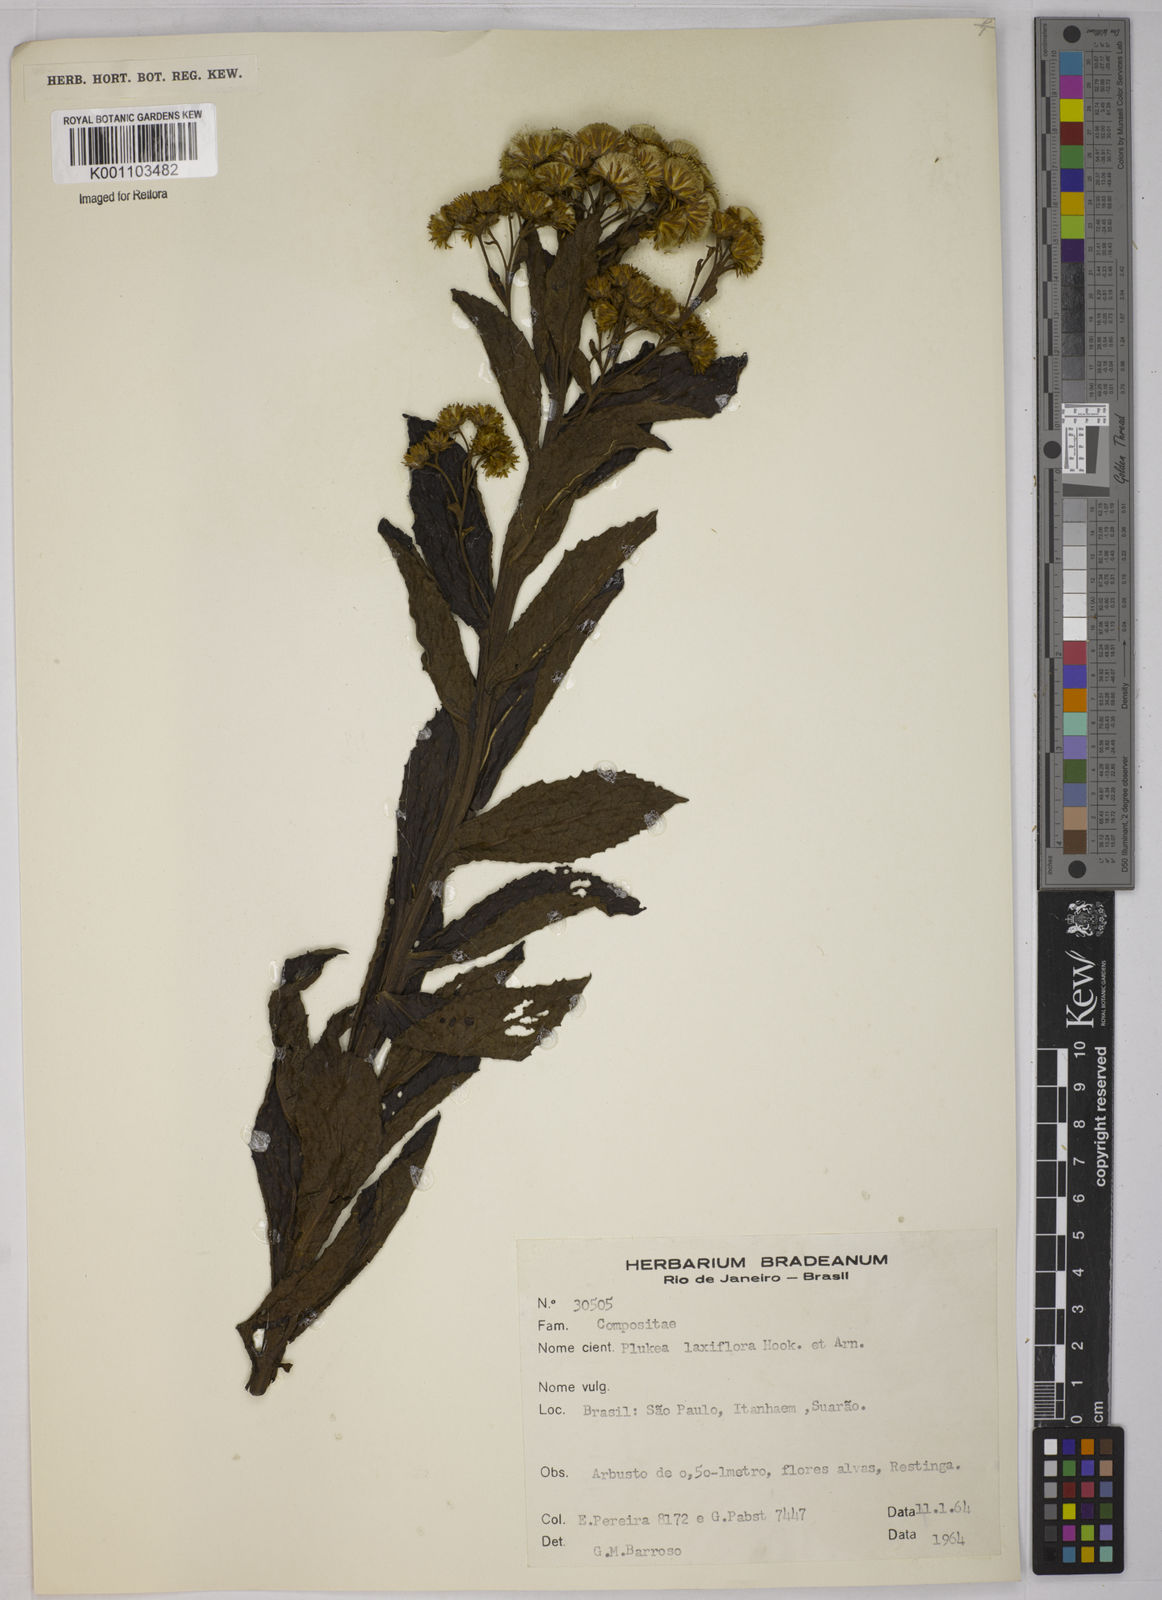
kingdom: Plantae
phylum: Tracheophyta
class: Magnoliopsida
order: Asterales
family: Asteraceae
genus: Pluchea
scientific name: Pluchea sagittalis
